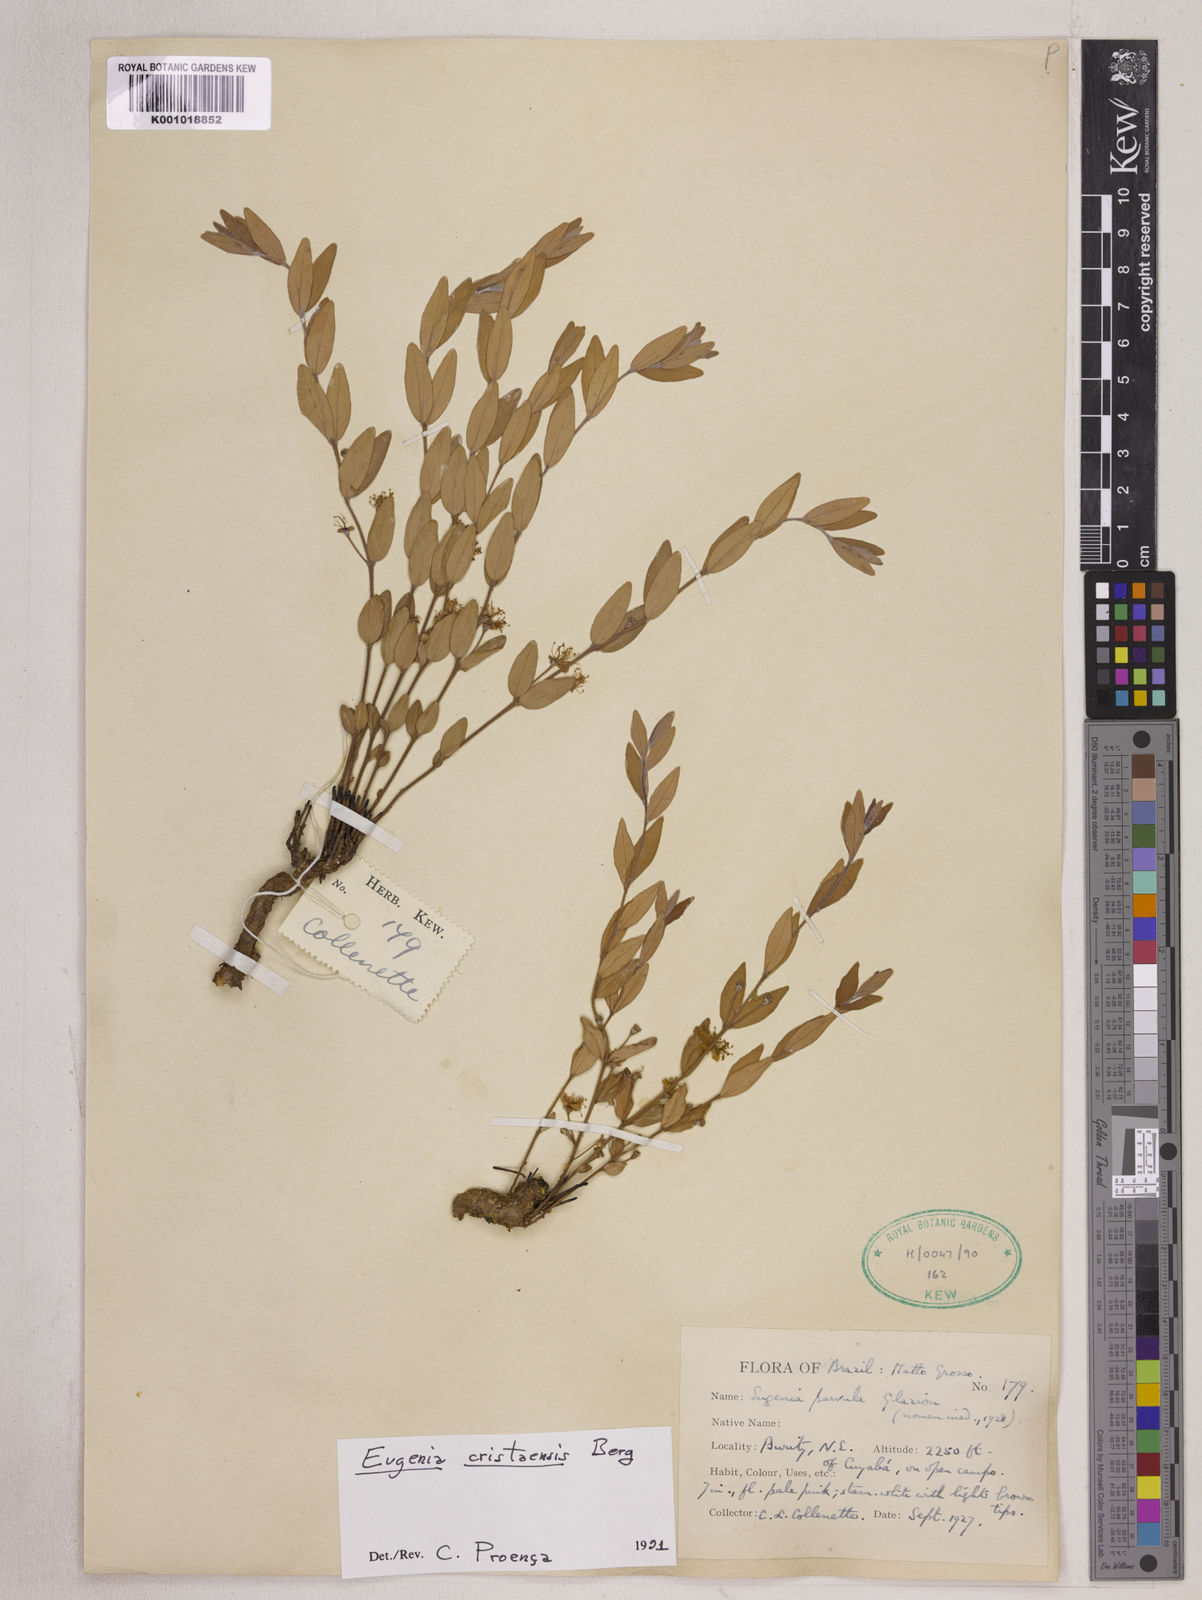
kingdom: Plantae
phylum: Tracheophyta
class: Magnoliopsida
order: Myrtales
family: Myrtaceae
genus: Eugenia
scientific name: Eugenia cristaensis
